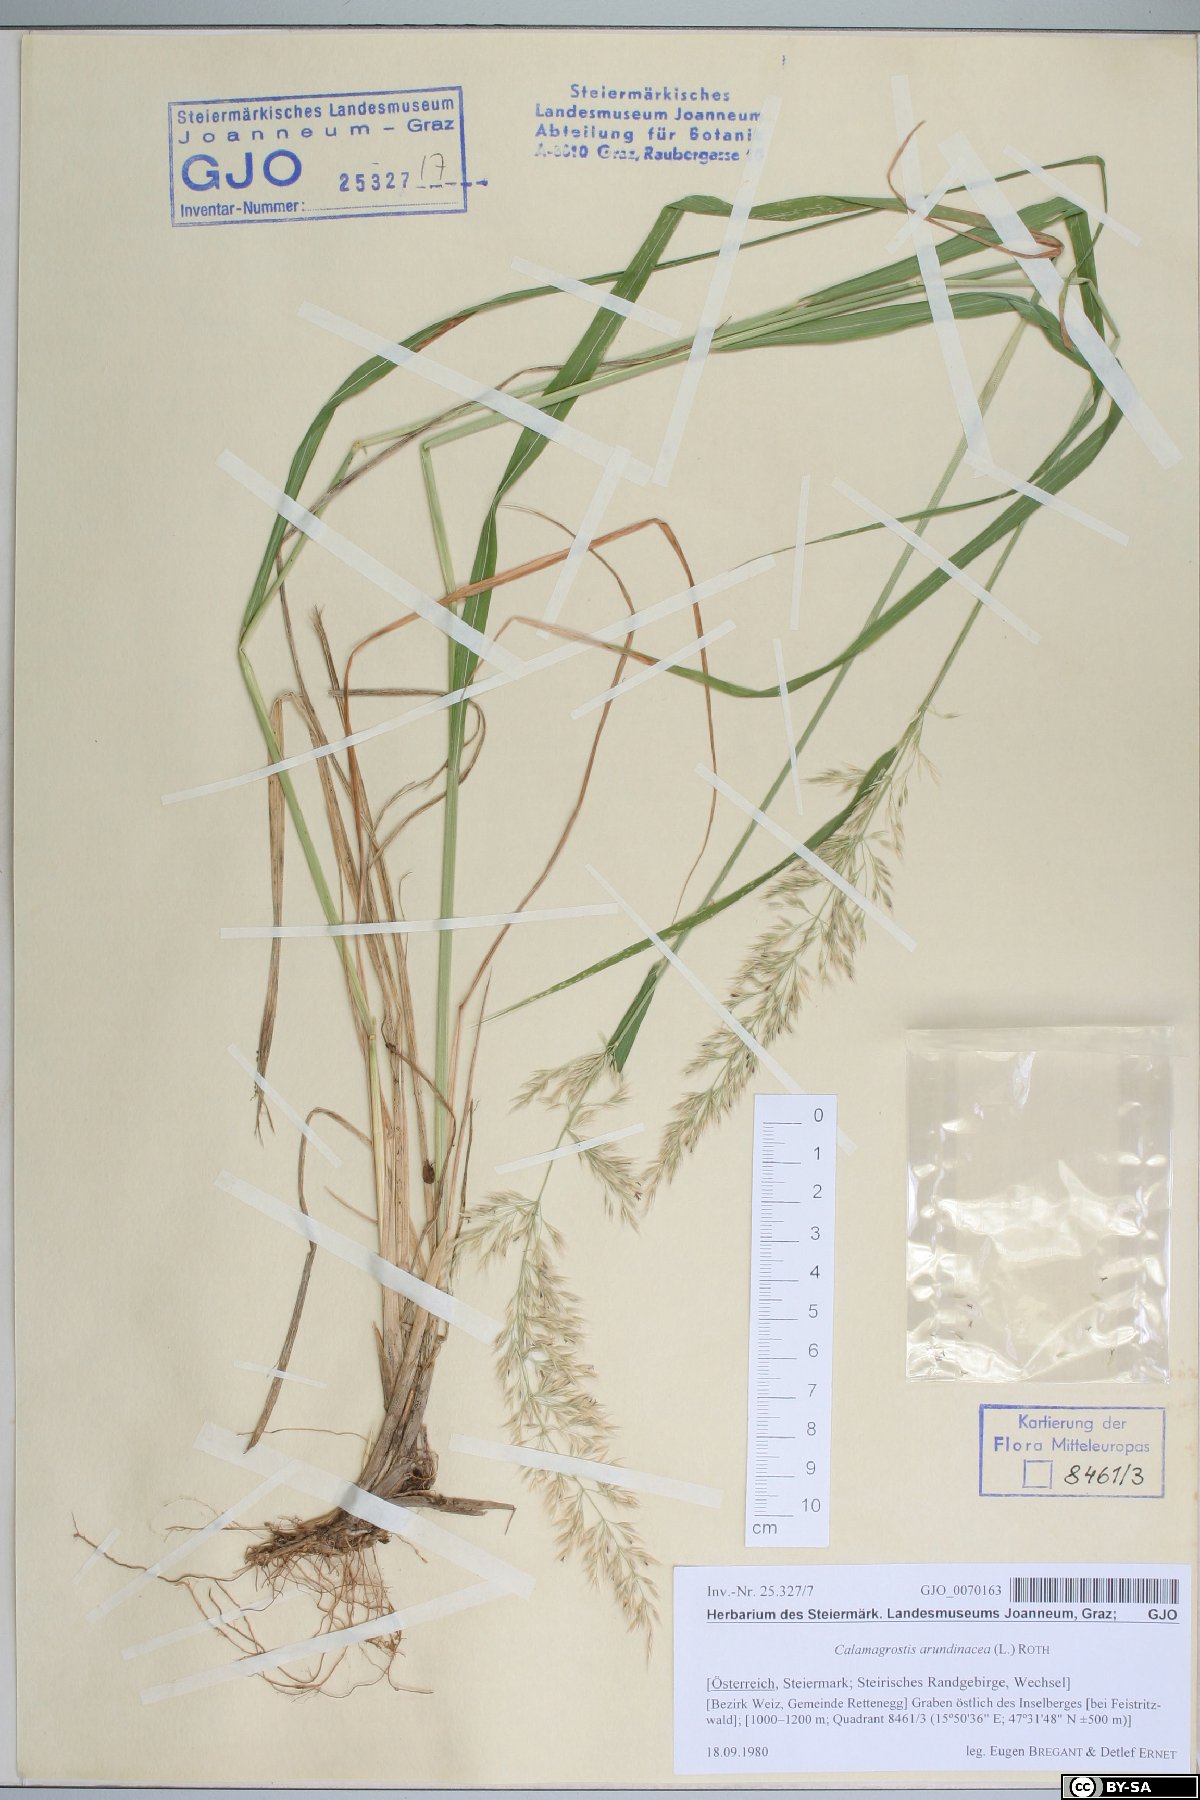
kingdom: Plantae
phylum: Tracheophyta
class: Liliopsida
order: Poales
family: Poaceae
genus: Calamagrostis
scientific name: Calamagrostis arundinacea
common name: Metskastik
